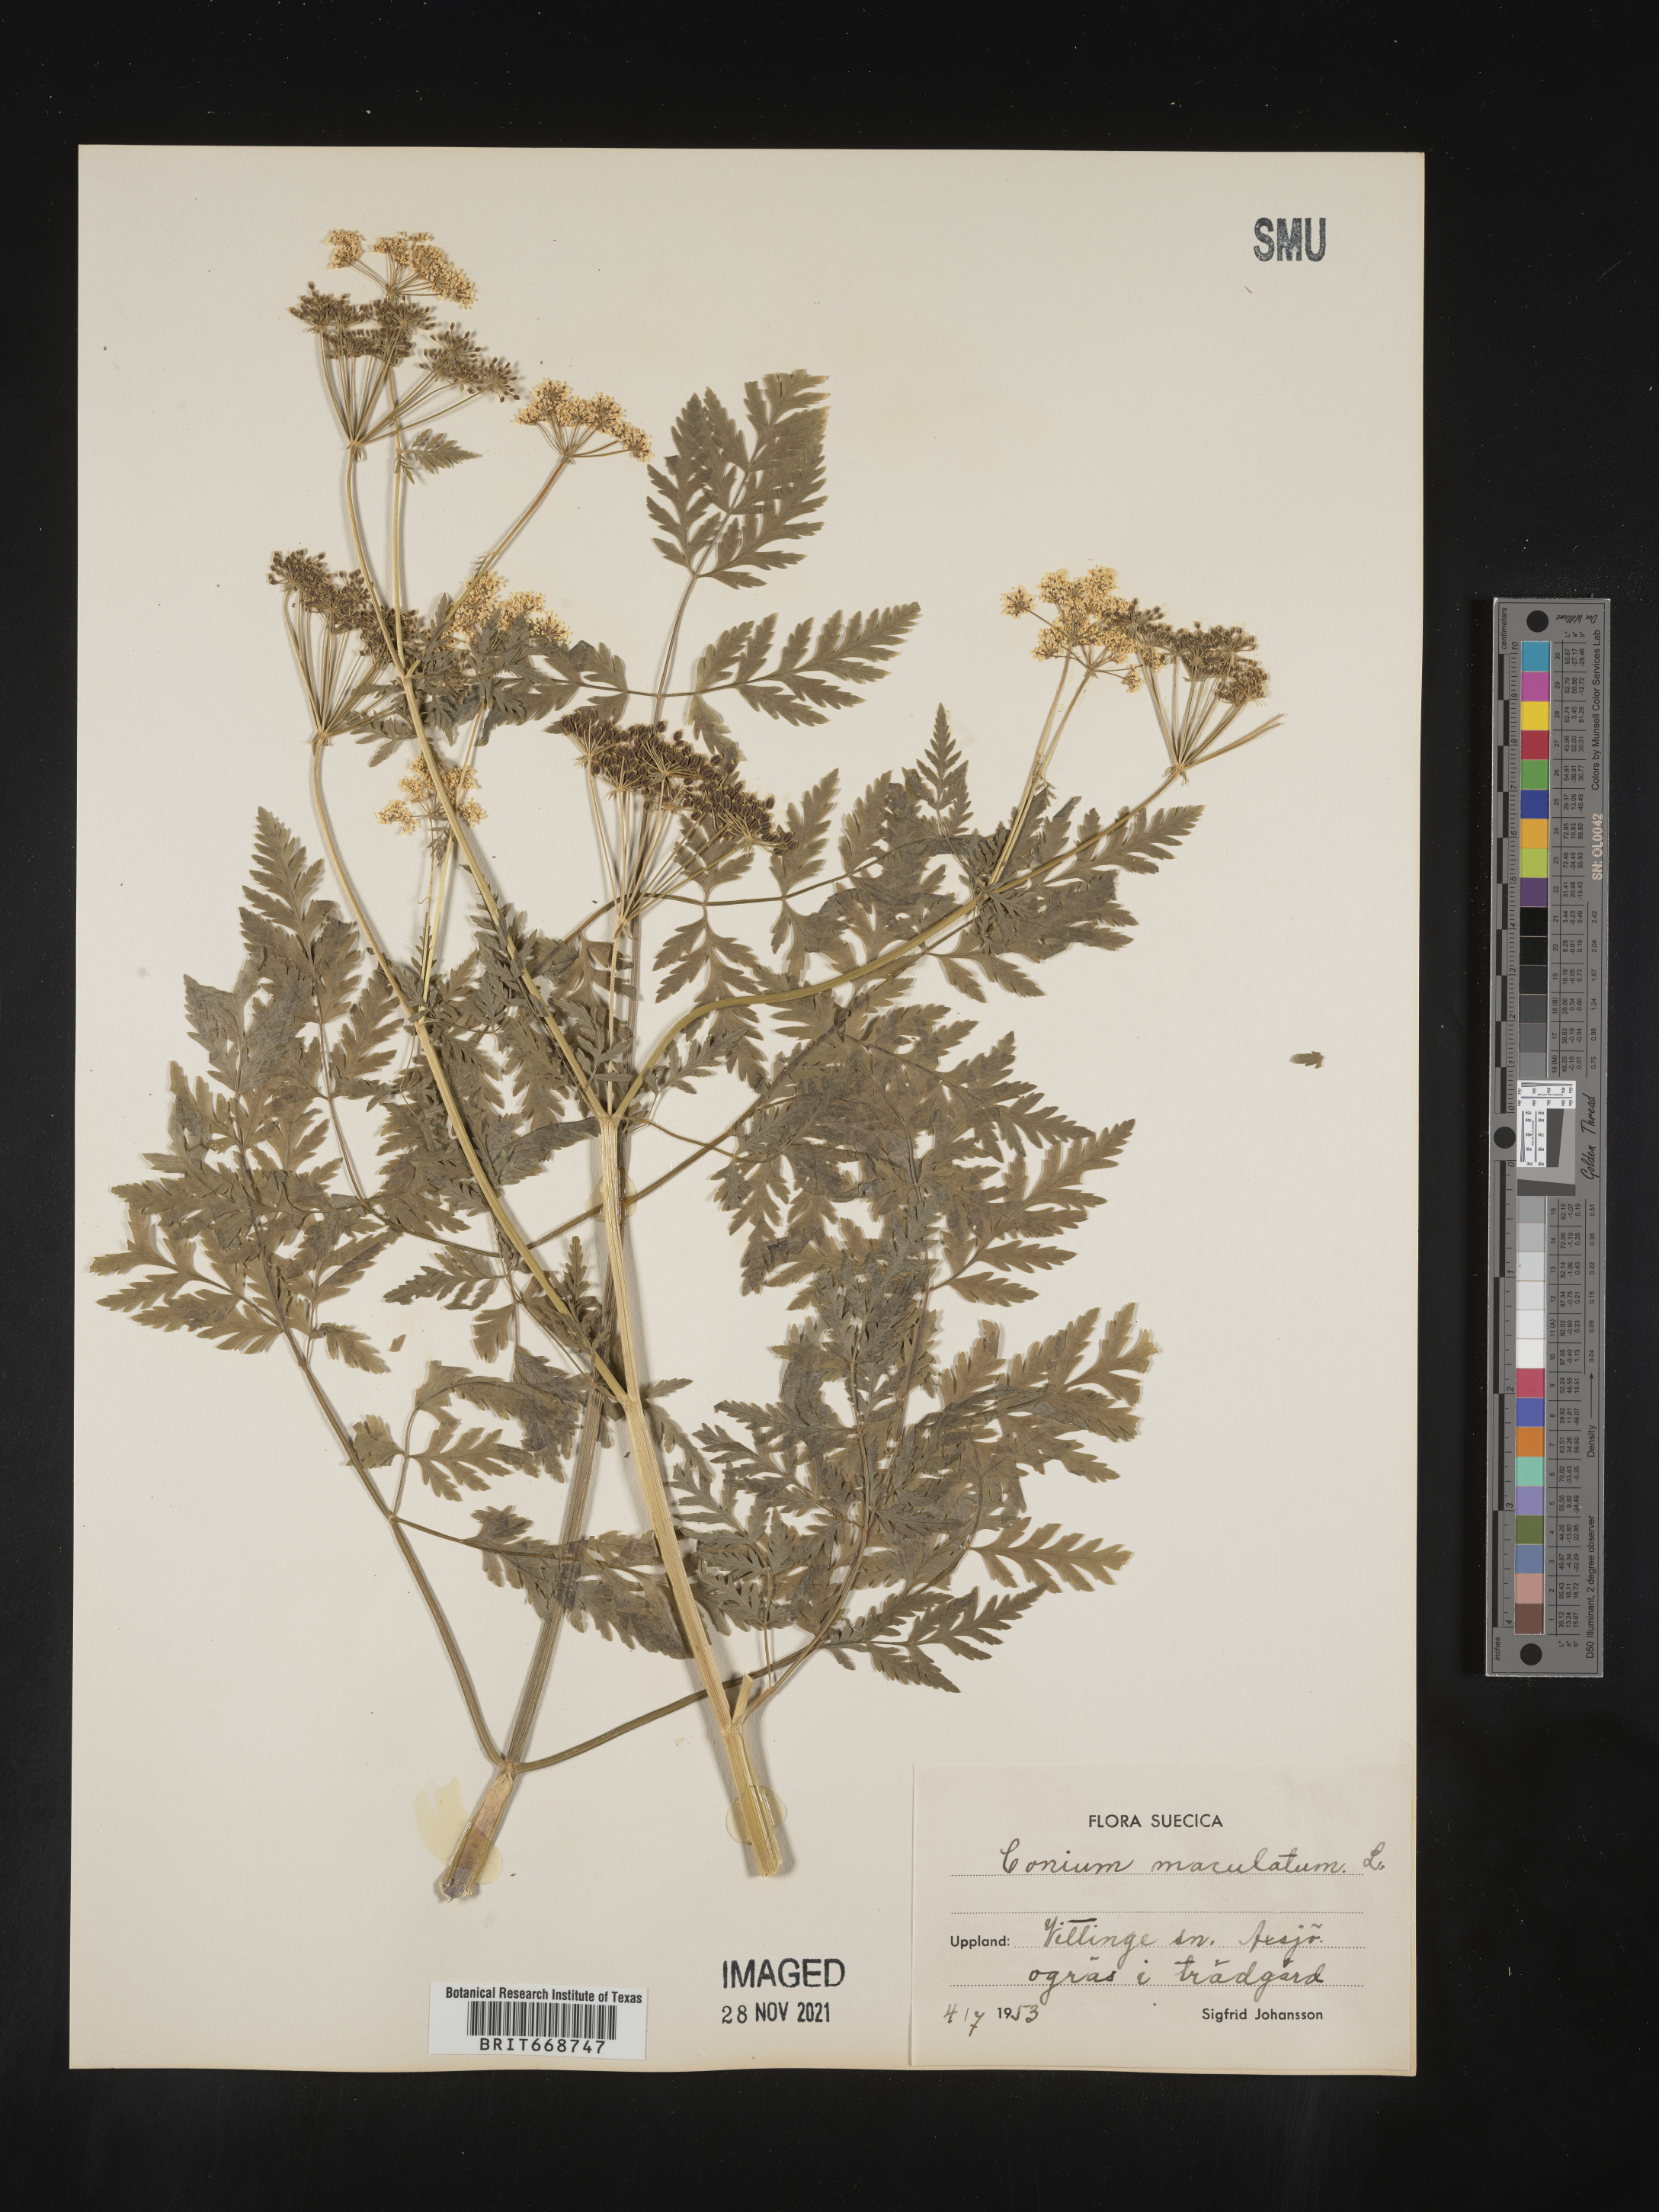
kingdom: Plantae
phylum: Tracheophyta
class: Magnoliopsida
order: Apiales
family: Apiaceae
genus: Conium
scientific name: Conium
